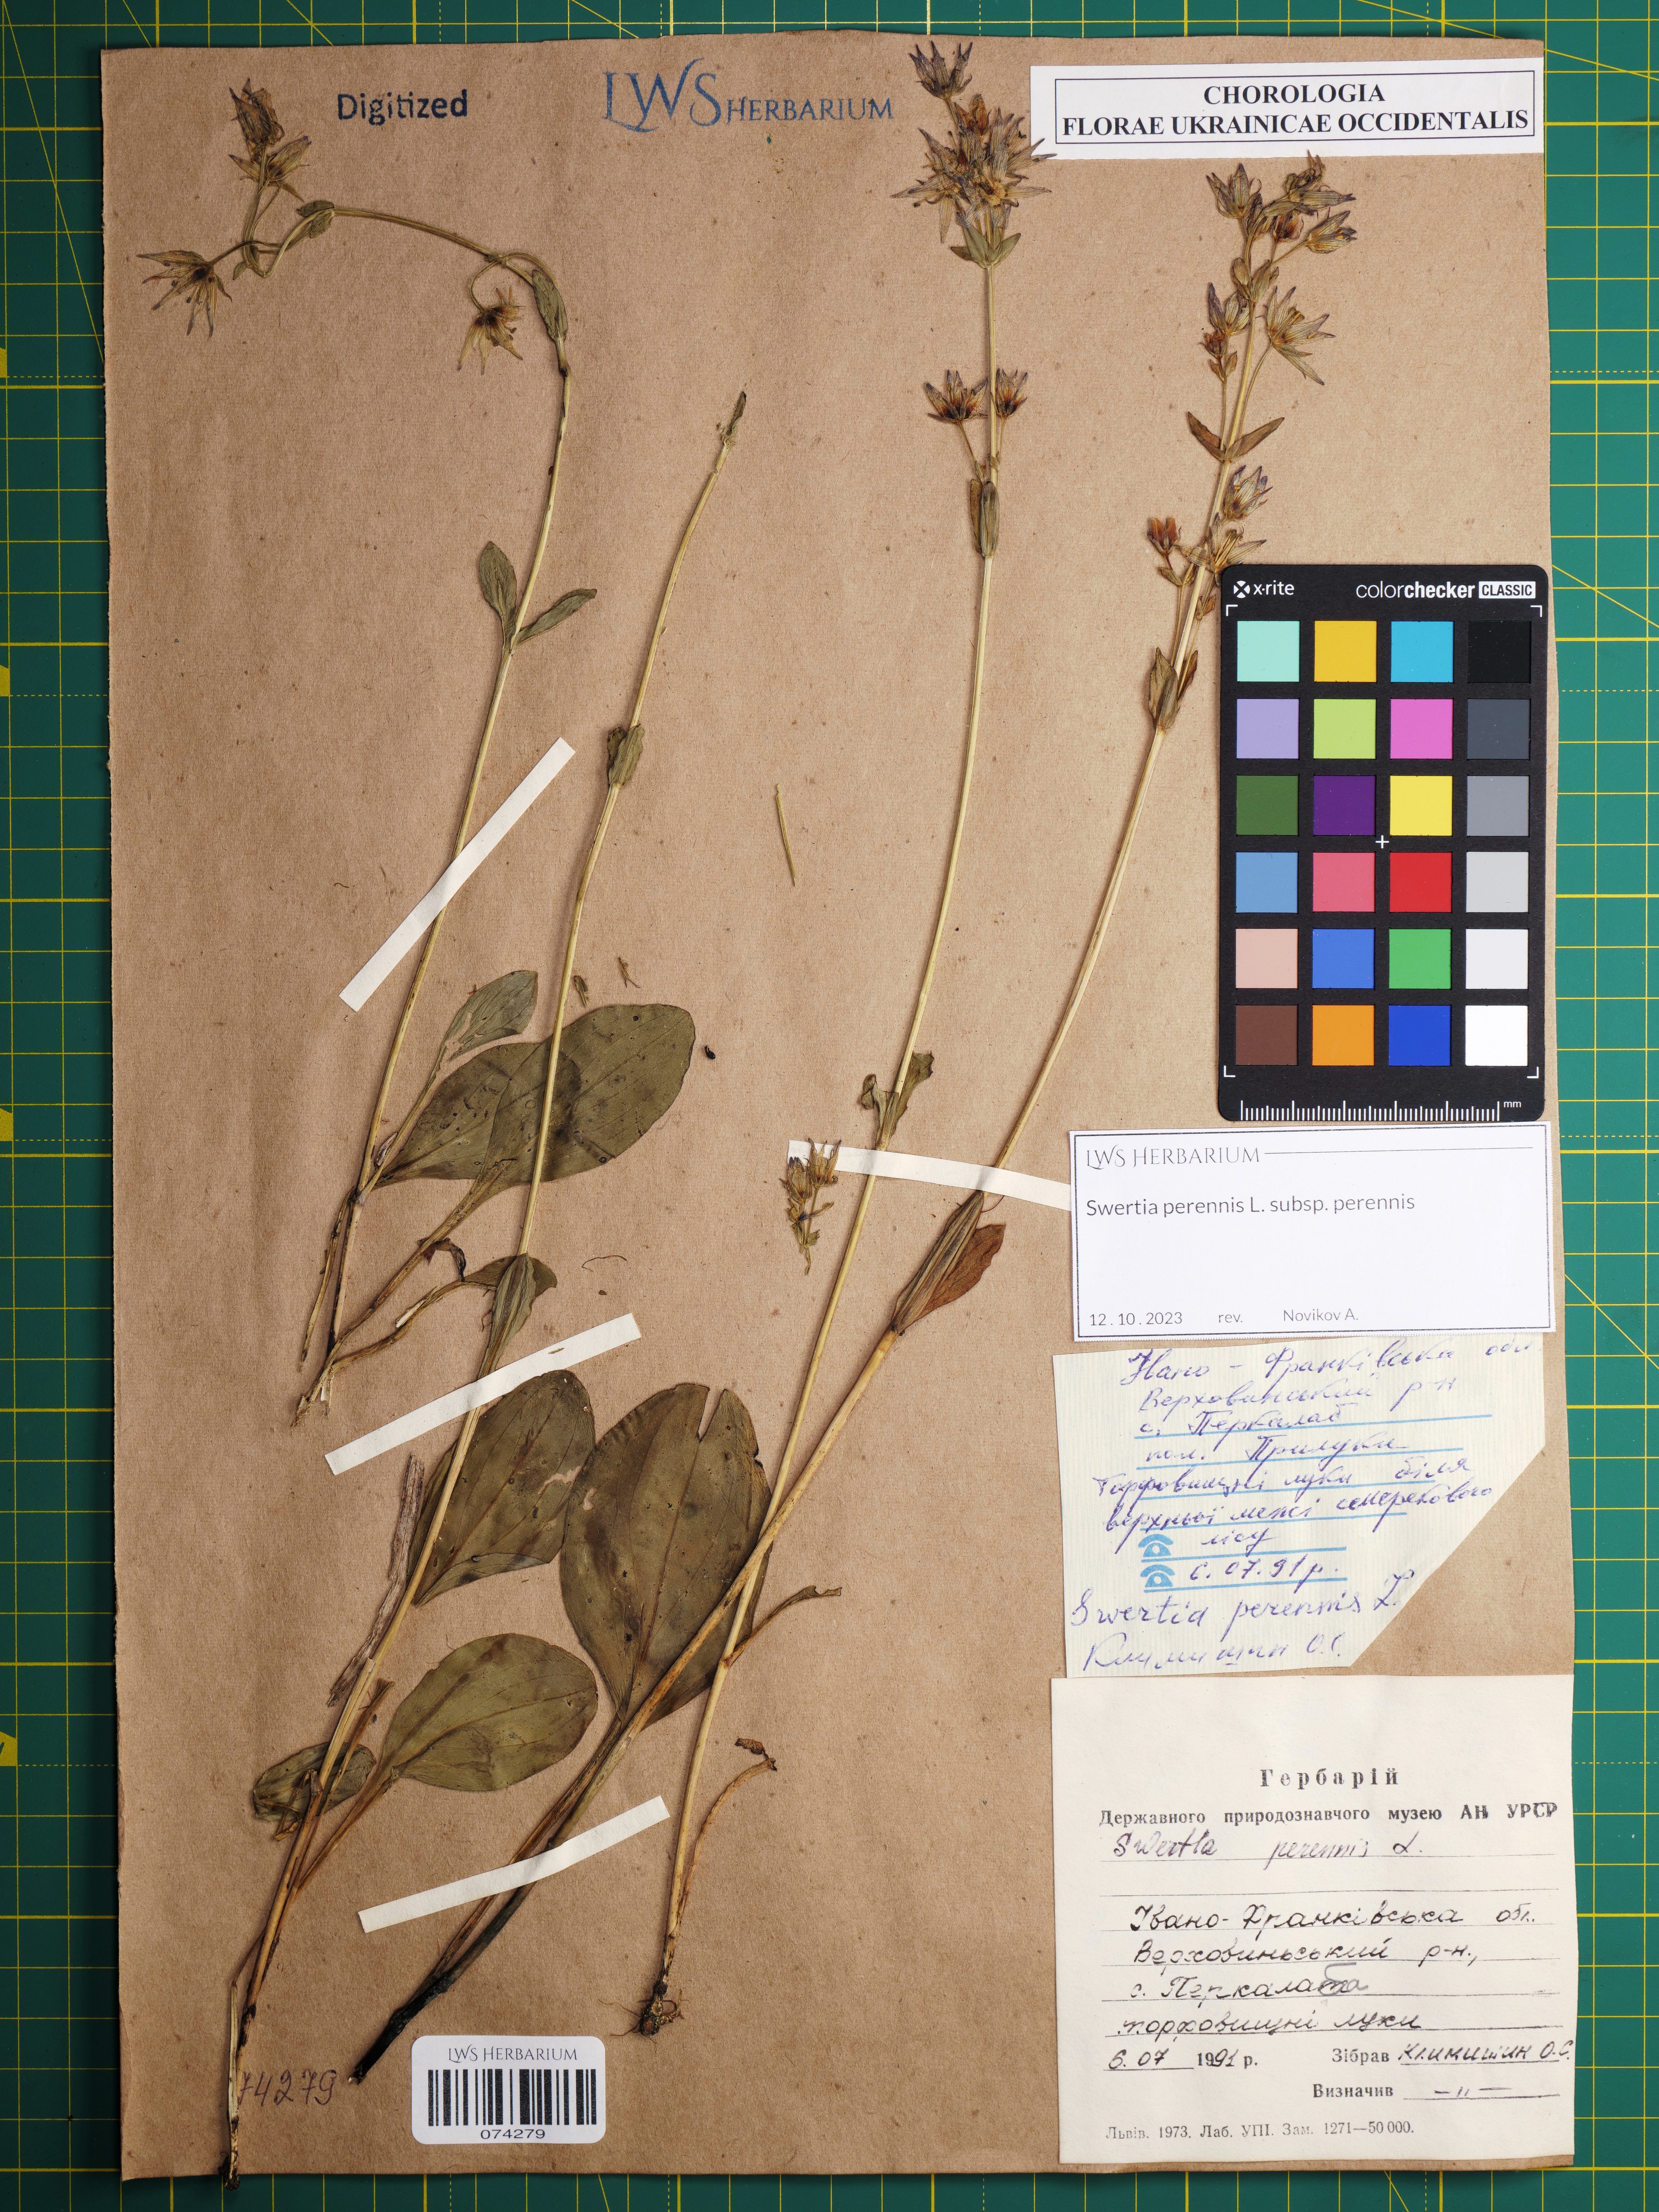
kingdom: Plantae
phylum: Tracheophyta
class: Magnoliopsida
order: Gentianales
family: Gentianaceae
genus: Swertia
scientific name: Swertia perennis
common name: Alpine bog swertia
